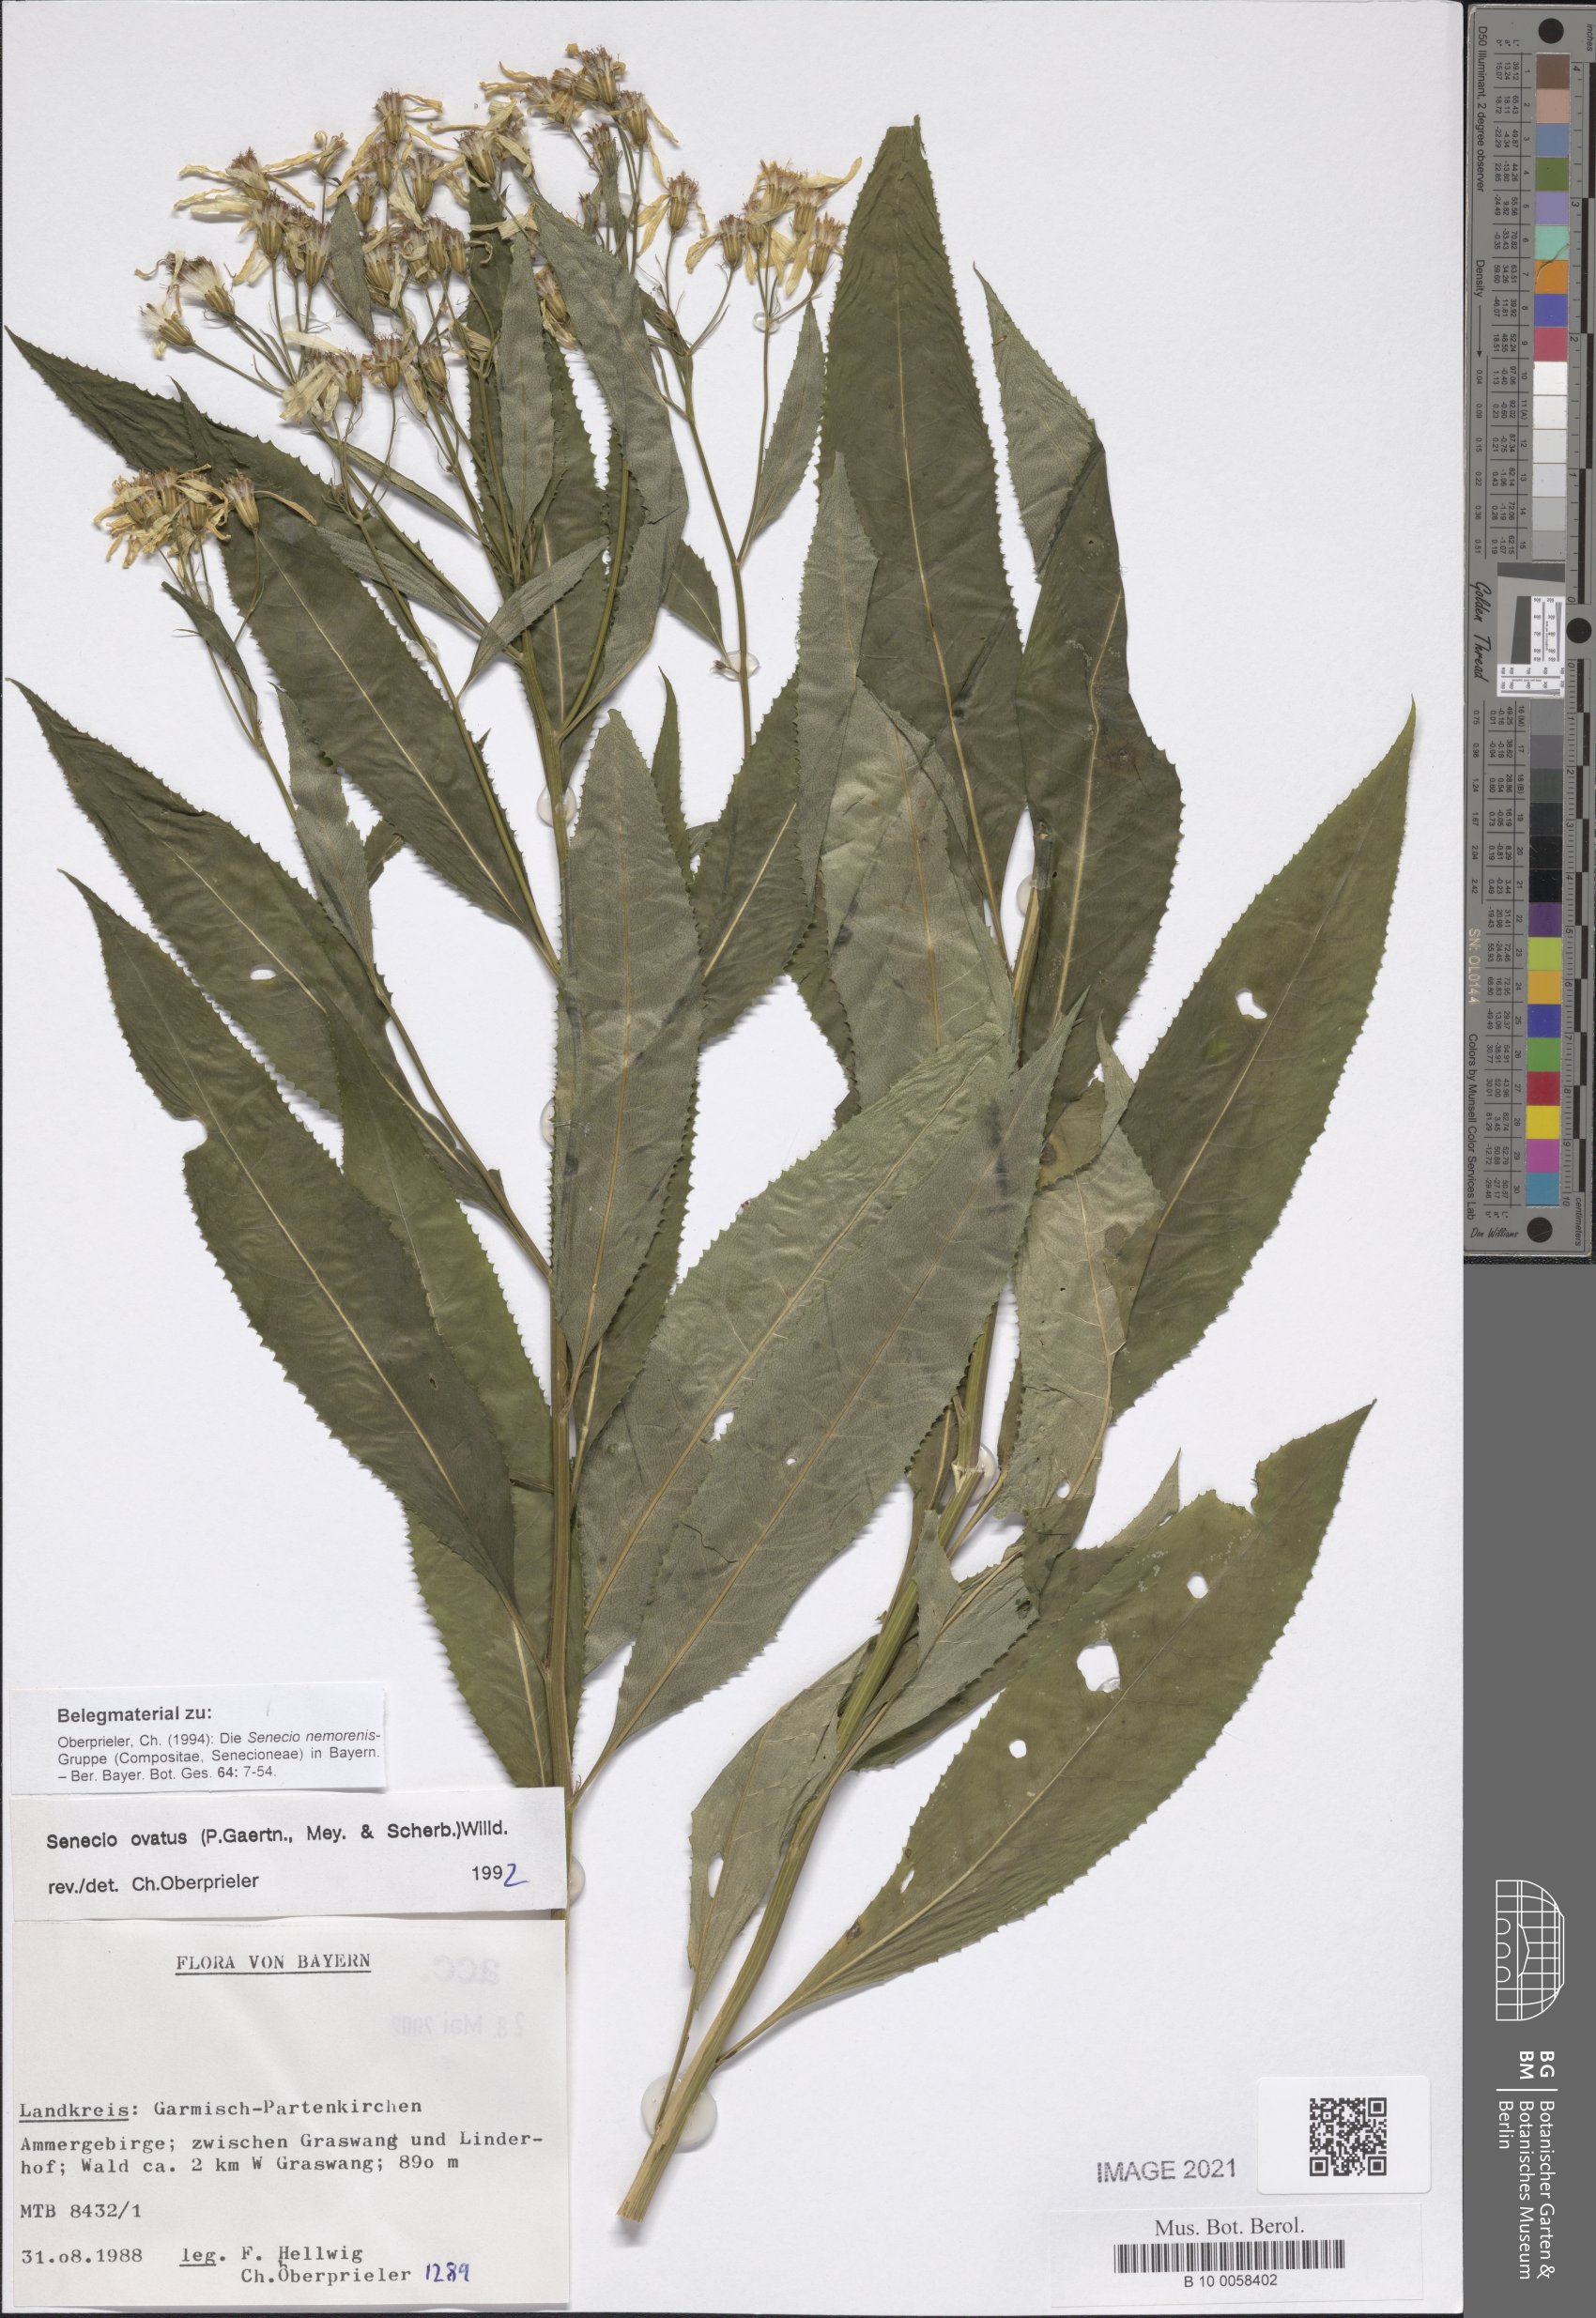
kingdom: Plantae
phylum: Tracheophyta
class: Magnoliopsida
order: Asterales
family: Asteraceae
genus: Senecio
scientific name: Senecio ovatus
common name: Wood ragwort
